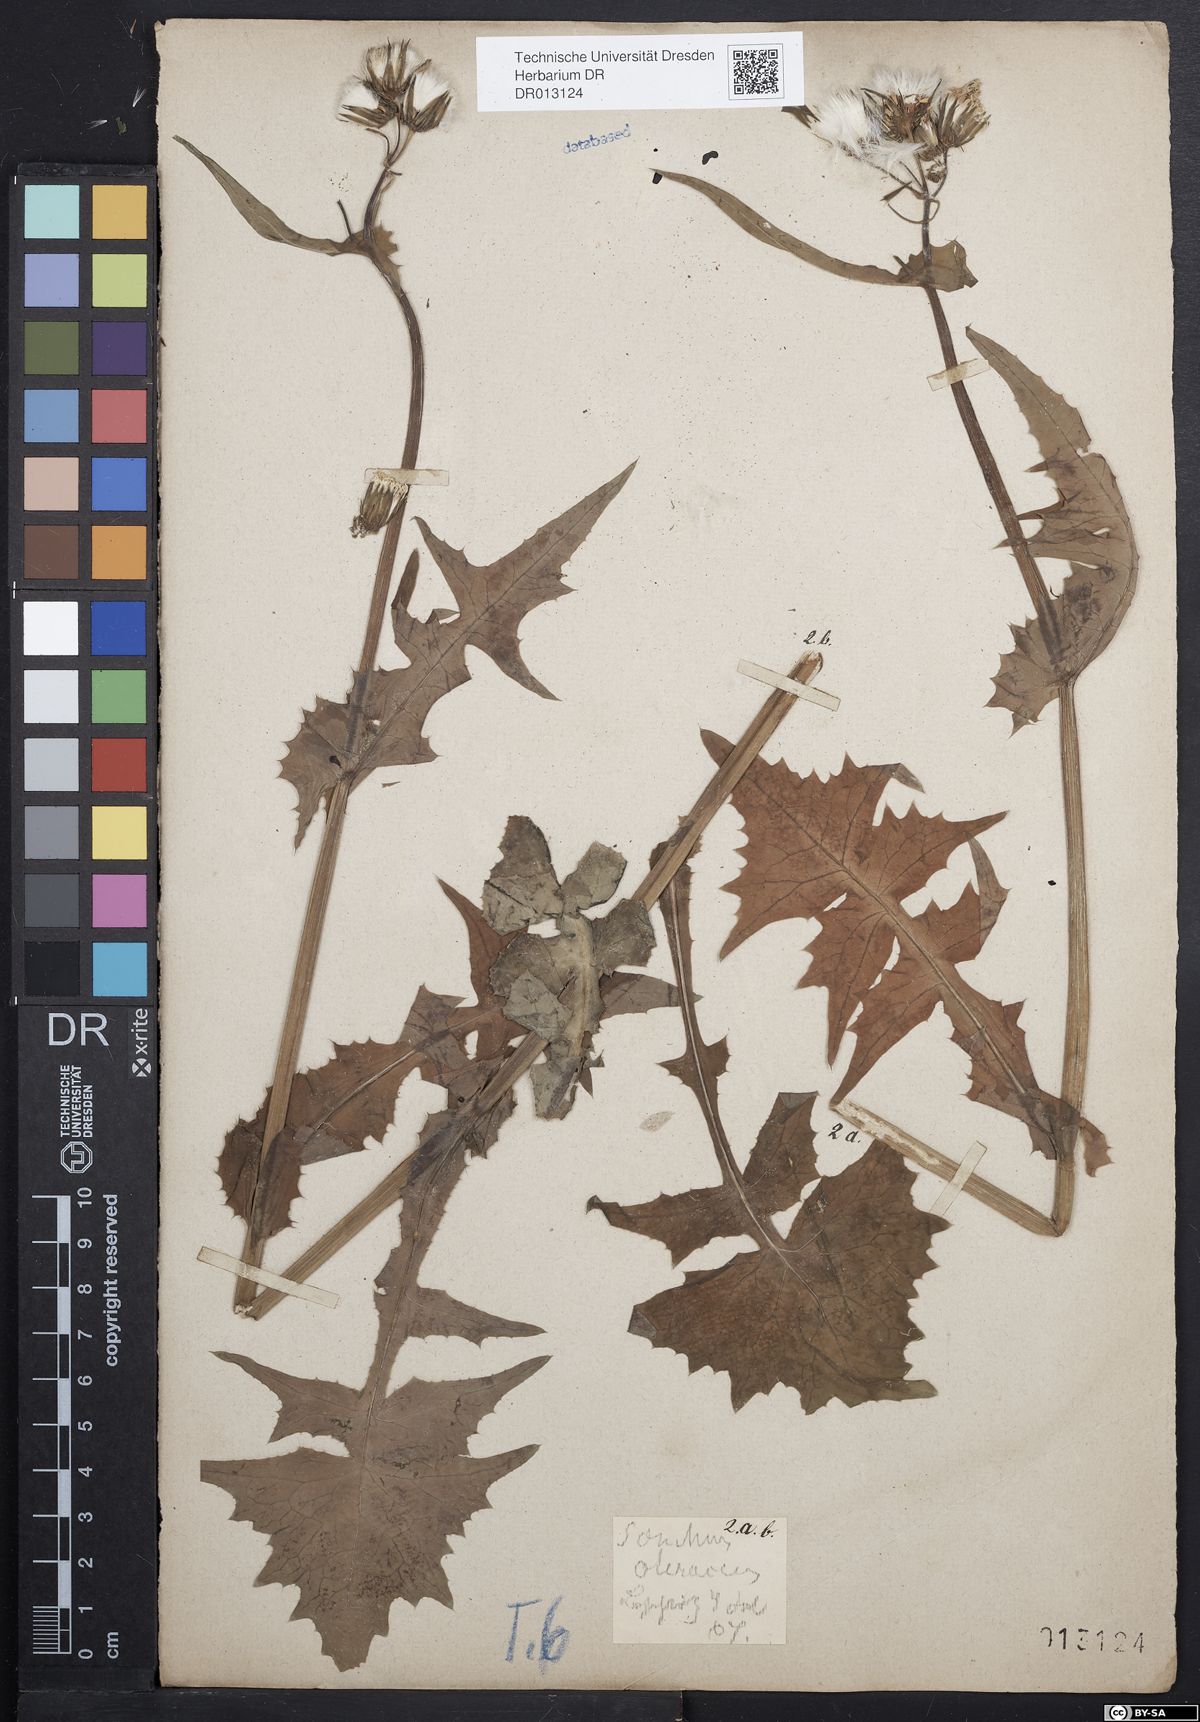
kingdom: Plantae
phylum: Tracheophyta
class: Magnoliopsida
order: Asterales
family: Asteraceae
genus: Sonchus
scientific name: Sonchus oleraceus
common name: Common sowthistle
